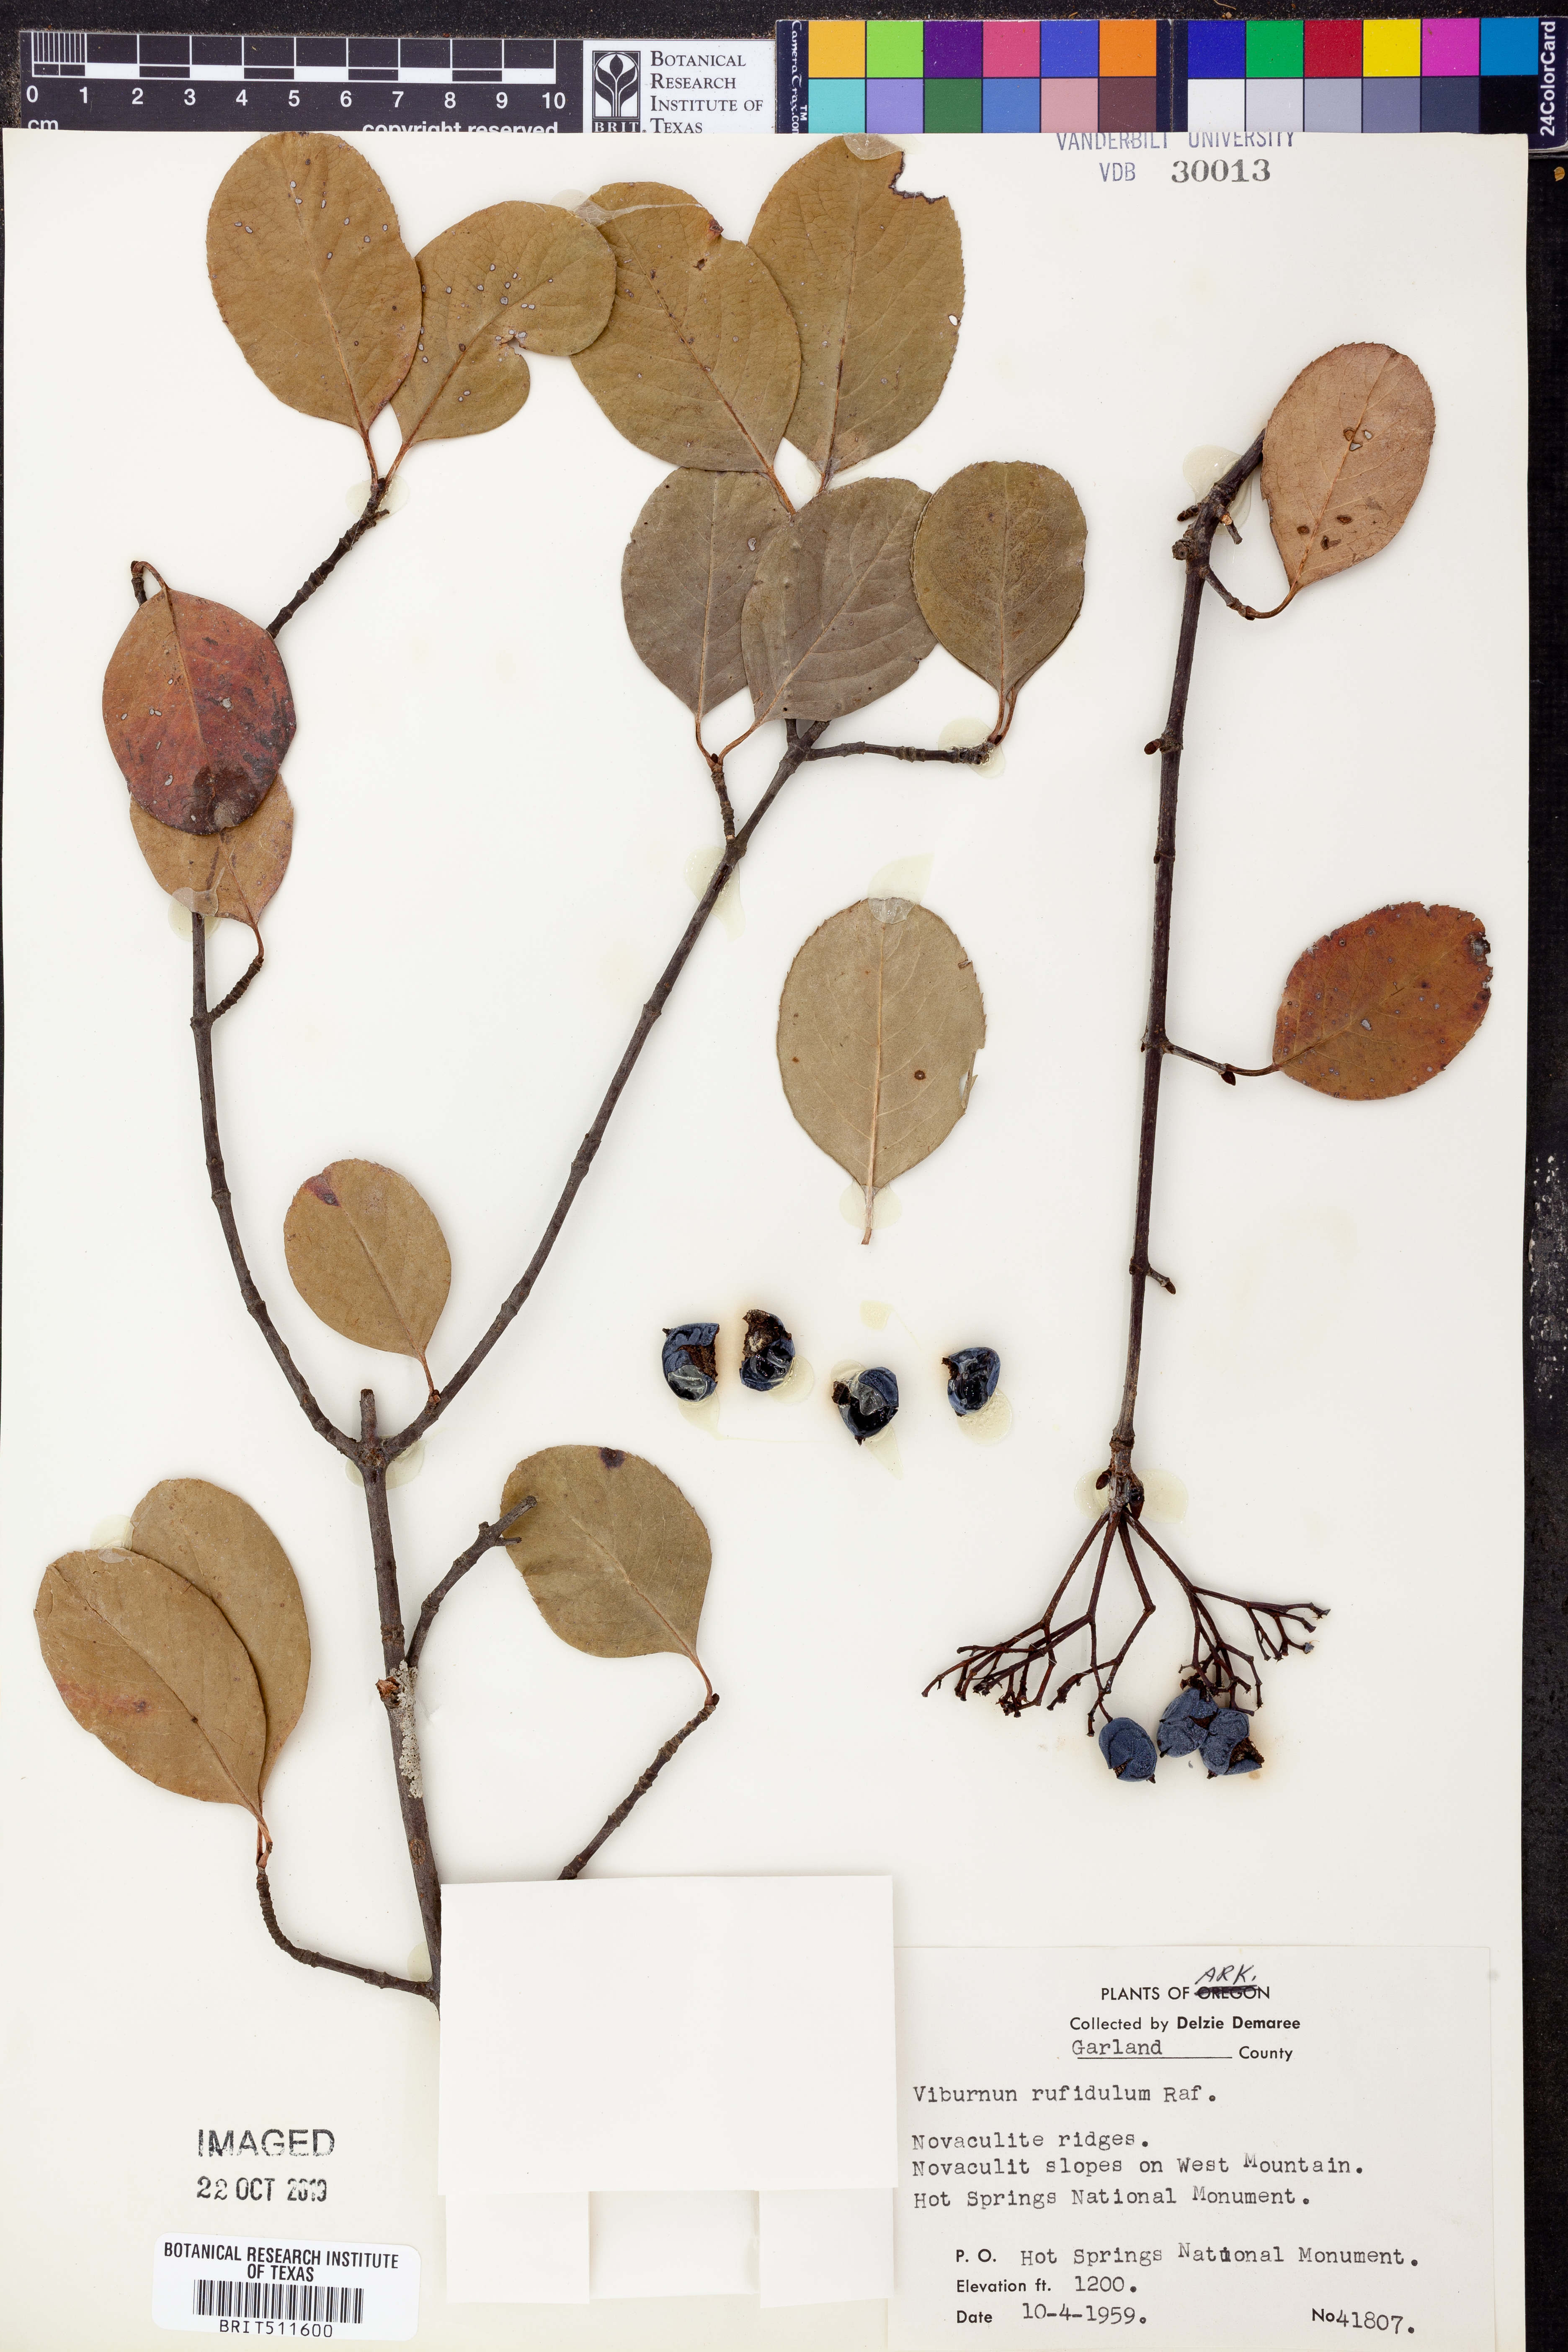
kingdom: Plantae
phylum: Tracheophyta
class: Magnoliopsida
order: Dipsacales
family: Viburnaceae
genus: Viburnum
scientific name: Viburnum rufidulum
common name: Blue haw
